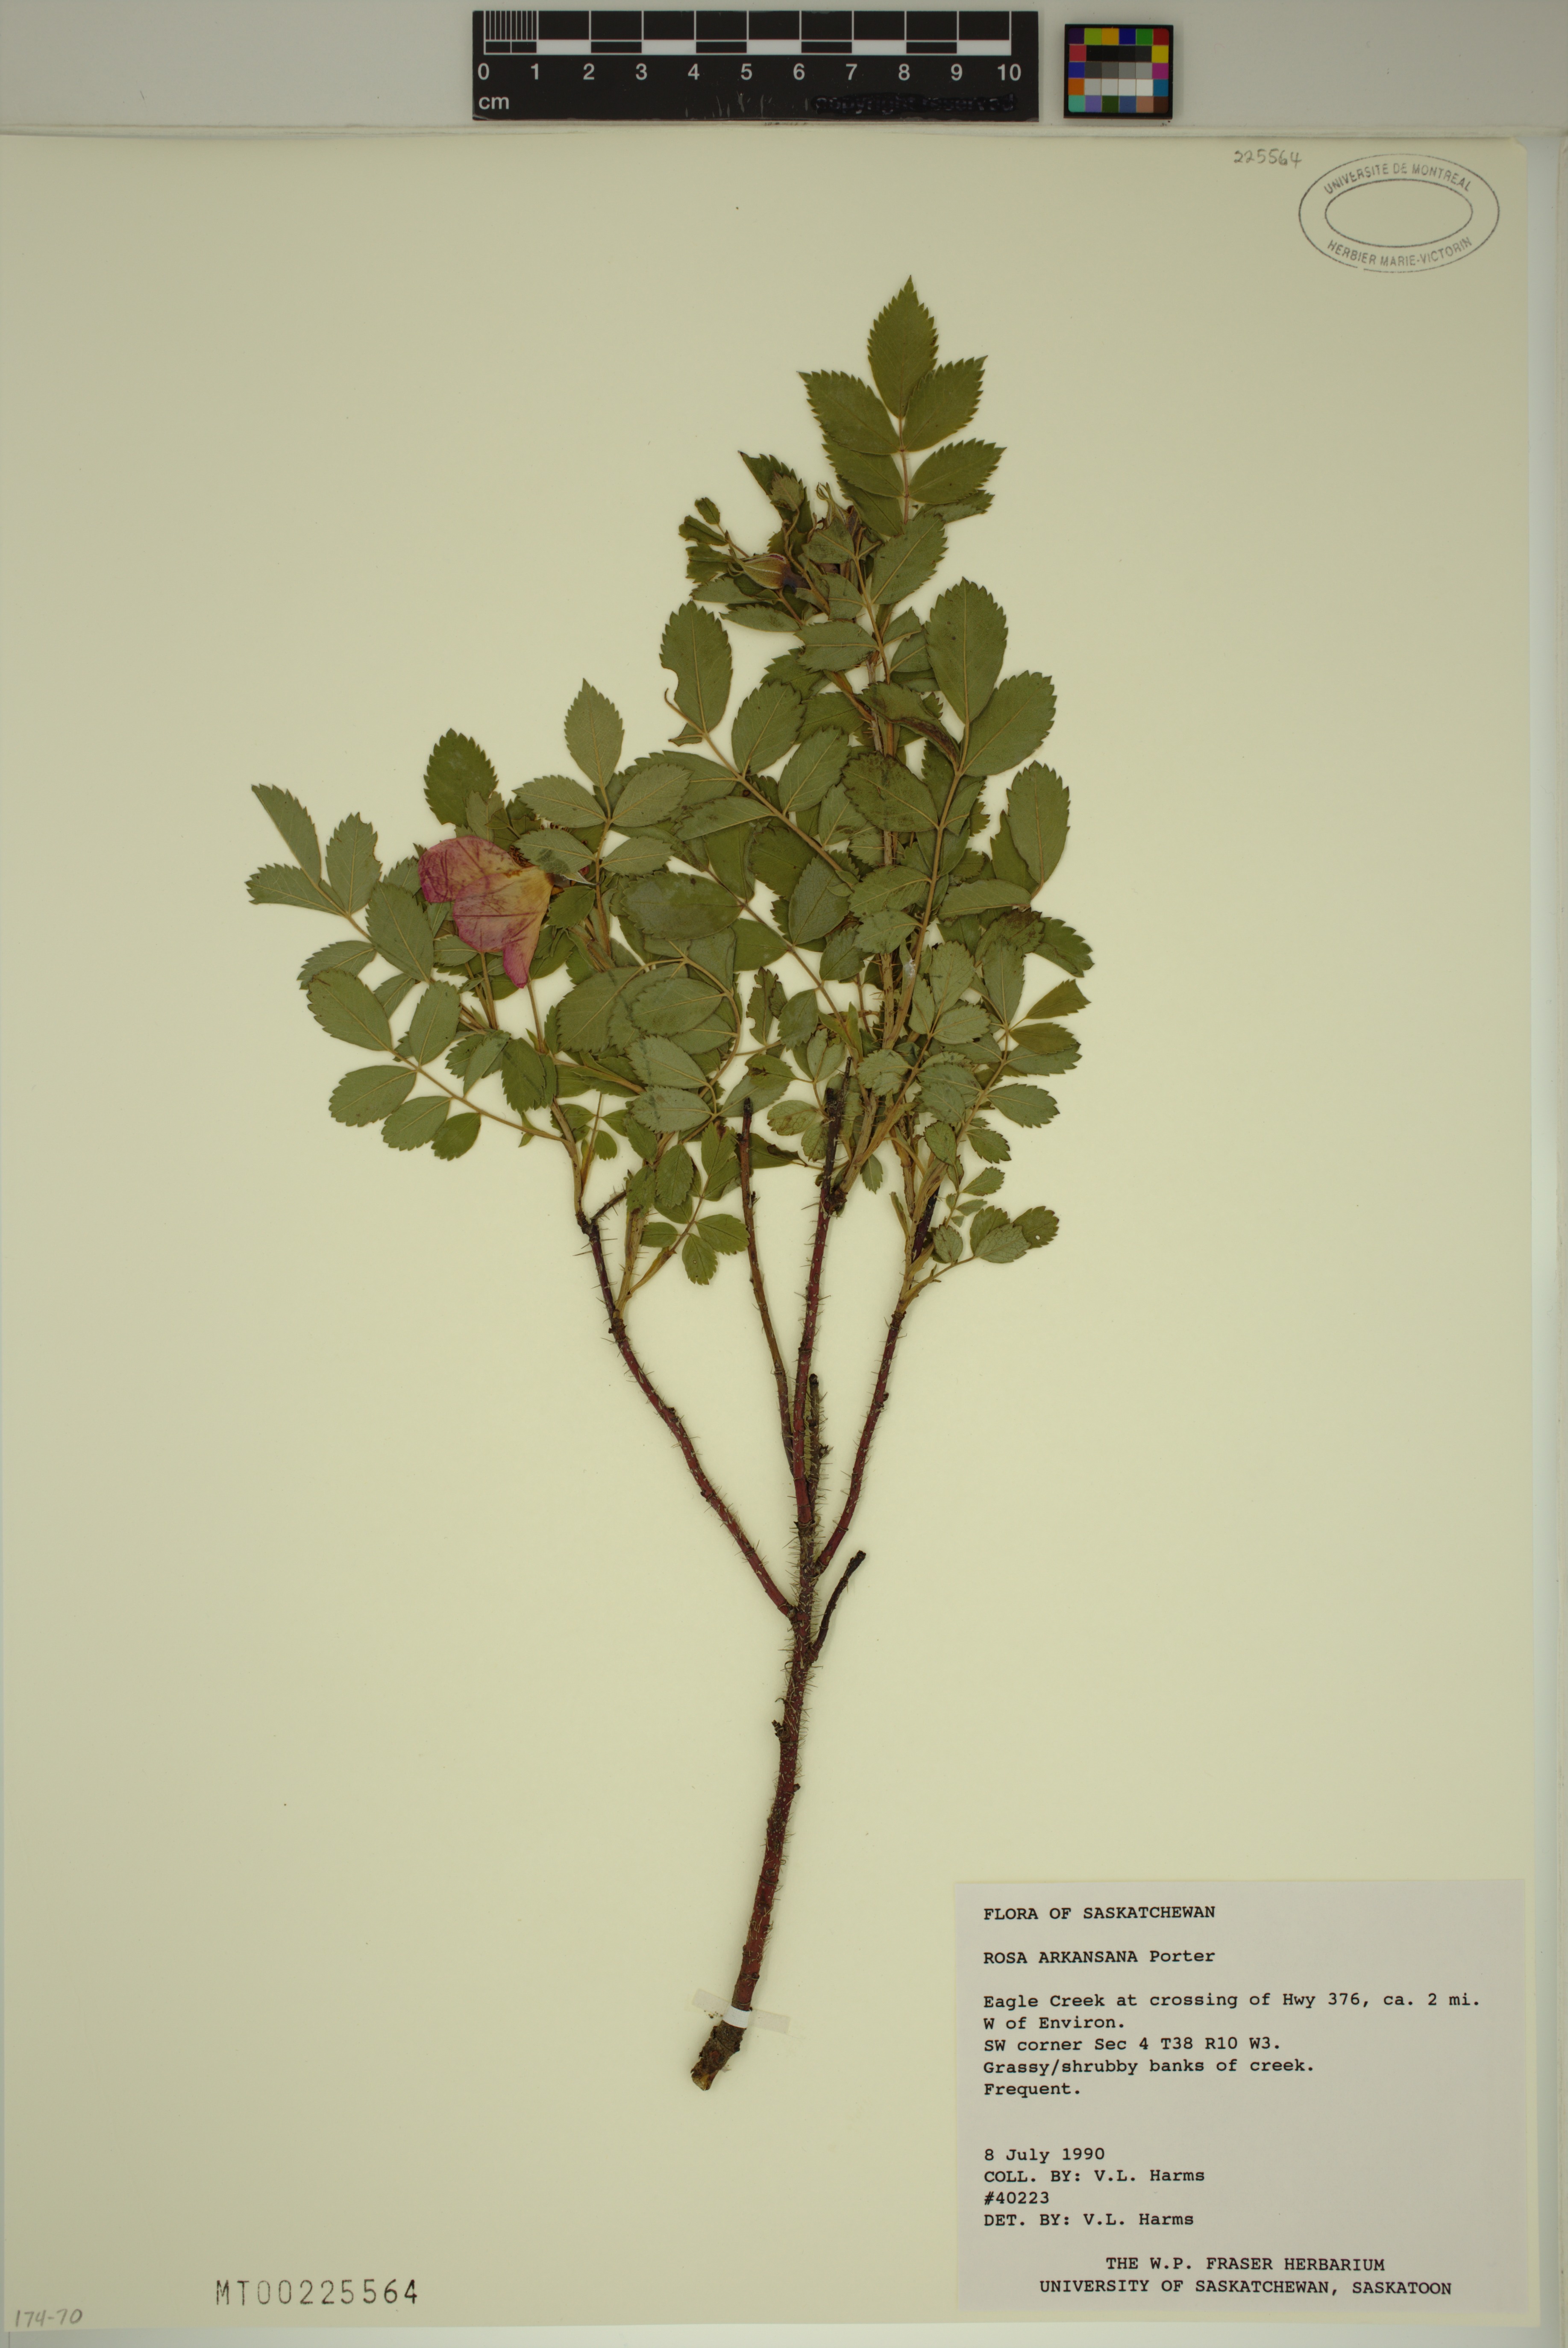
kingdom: Plantae
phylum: Tracheophyta
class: Magnoliopsida
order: Rosales
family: Rosaceae
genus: Rosa
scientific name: Rosa arkansana
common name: Prairie rose
